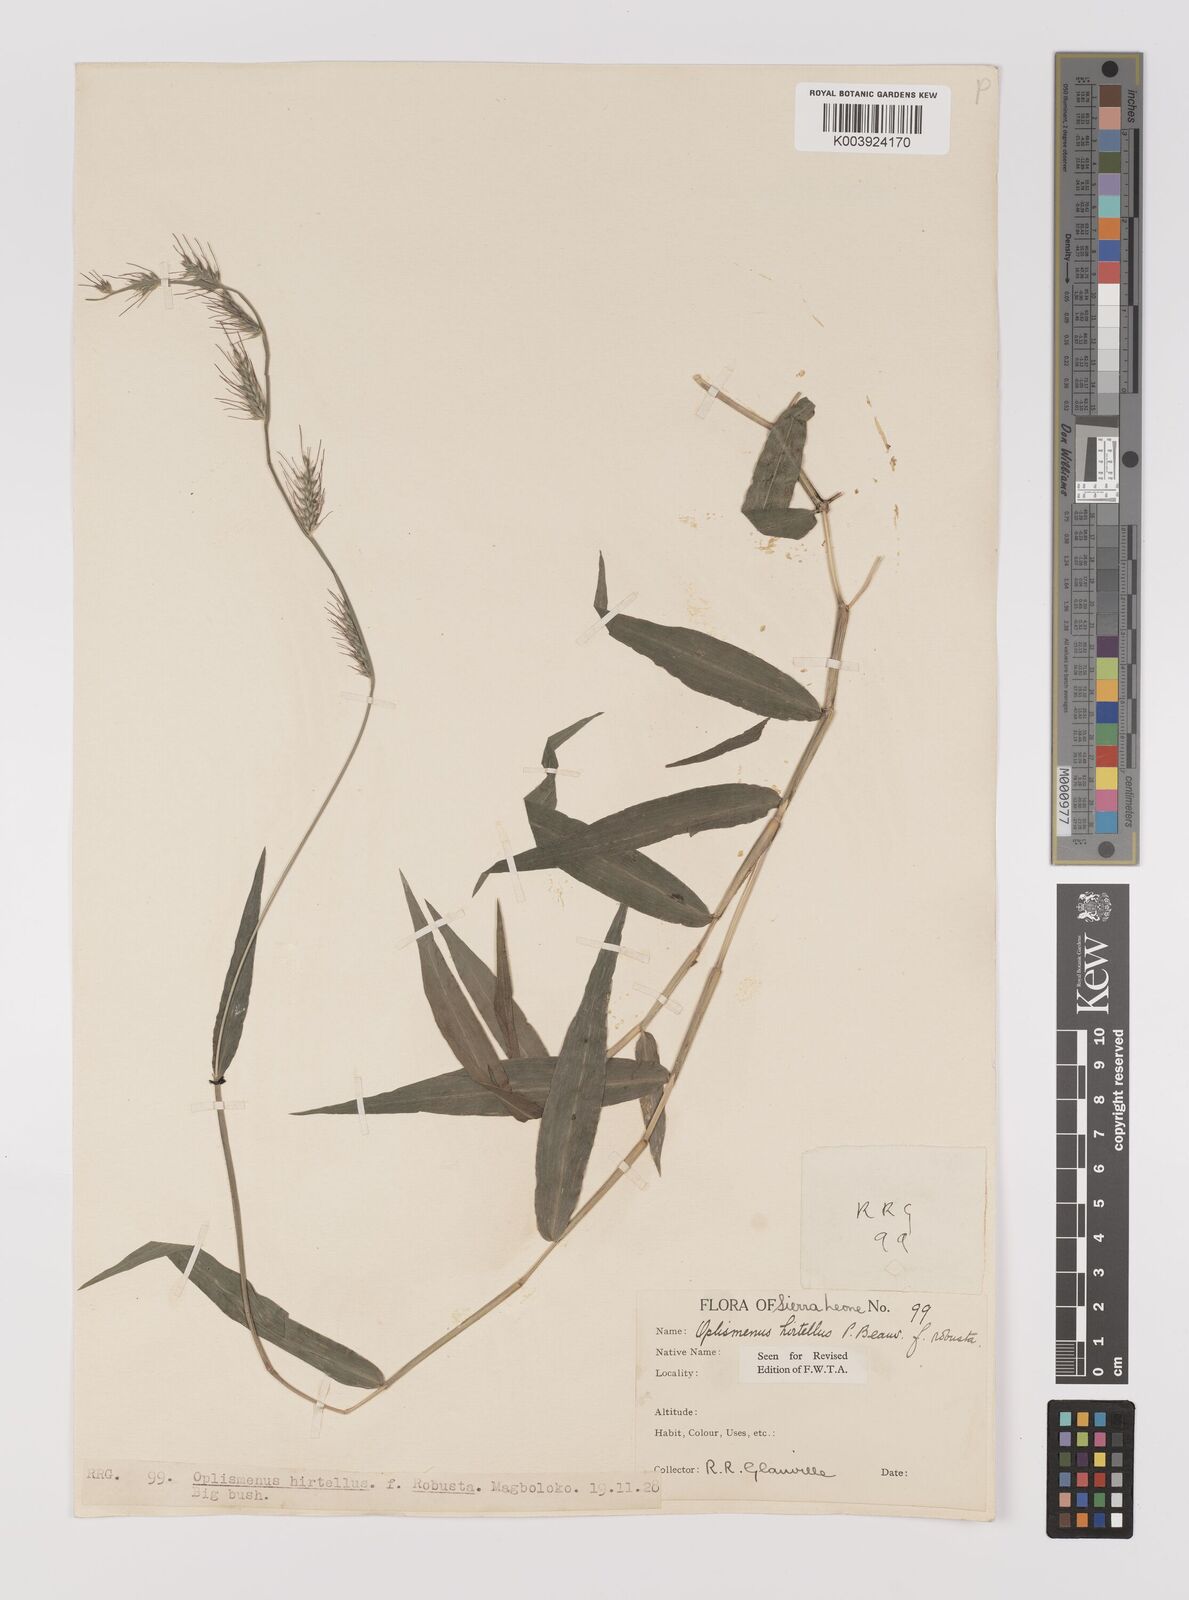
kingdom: Plantae
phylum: Tracheophyta
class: Liliopsida
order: Poales
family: Poaceae
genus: Oplismenus
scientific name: Oplismenus hirtellus
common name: Basketgrass
